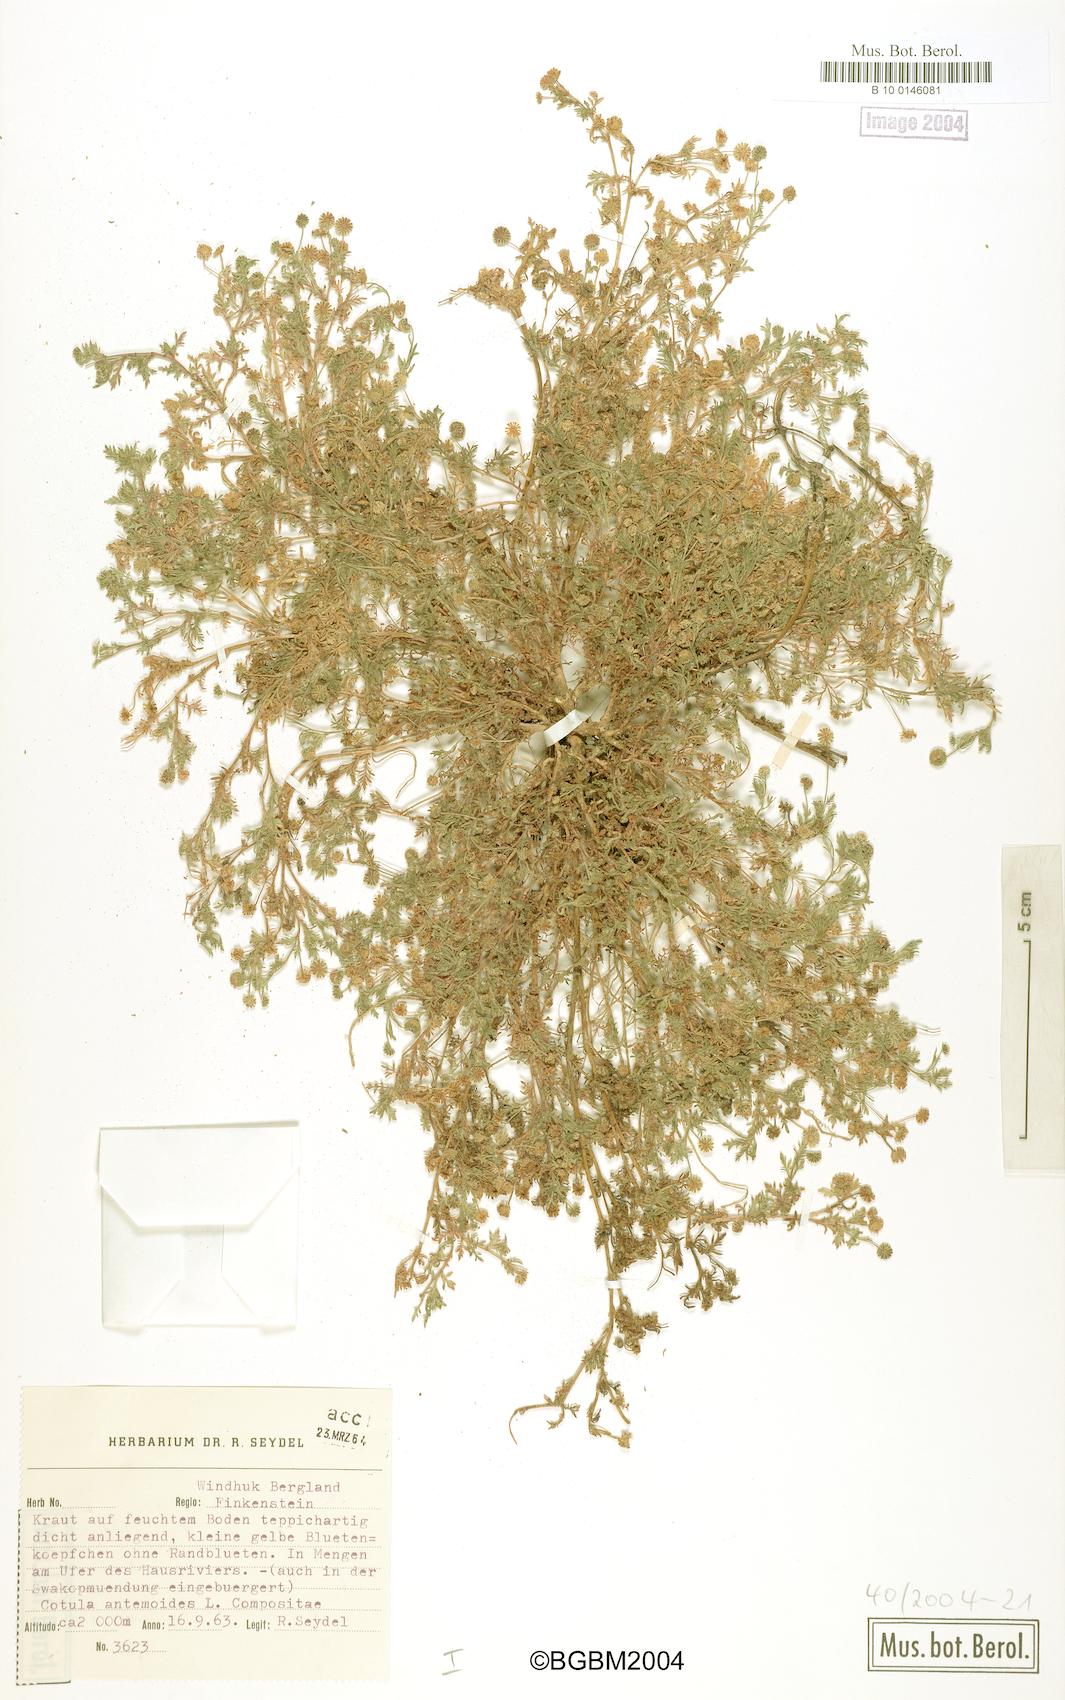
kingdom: Plantae
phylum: Tracheophyta
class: Magnoliopsida
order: Asterales
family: Asteraceae
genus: Cotula
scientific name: Cotula anthemoides
